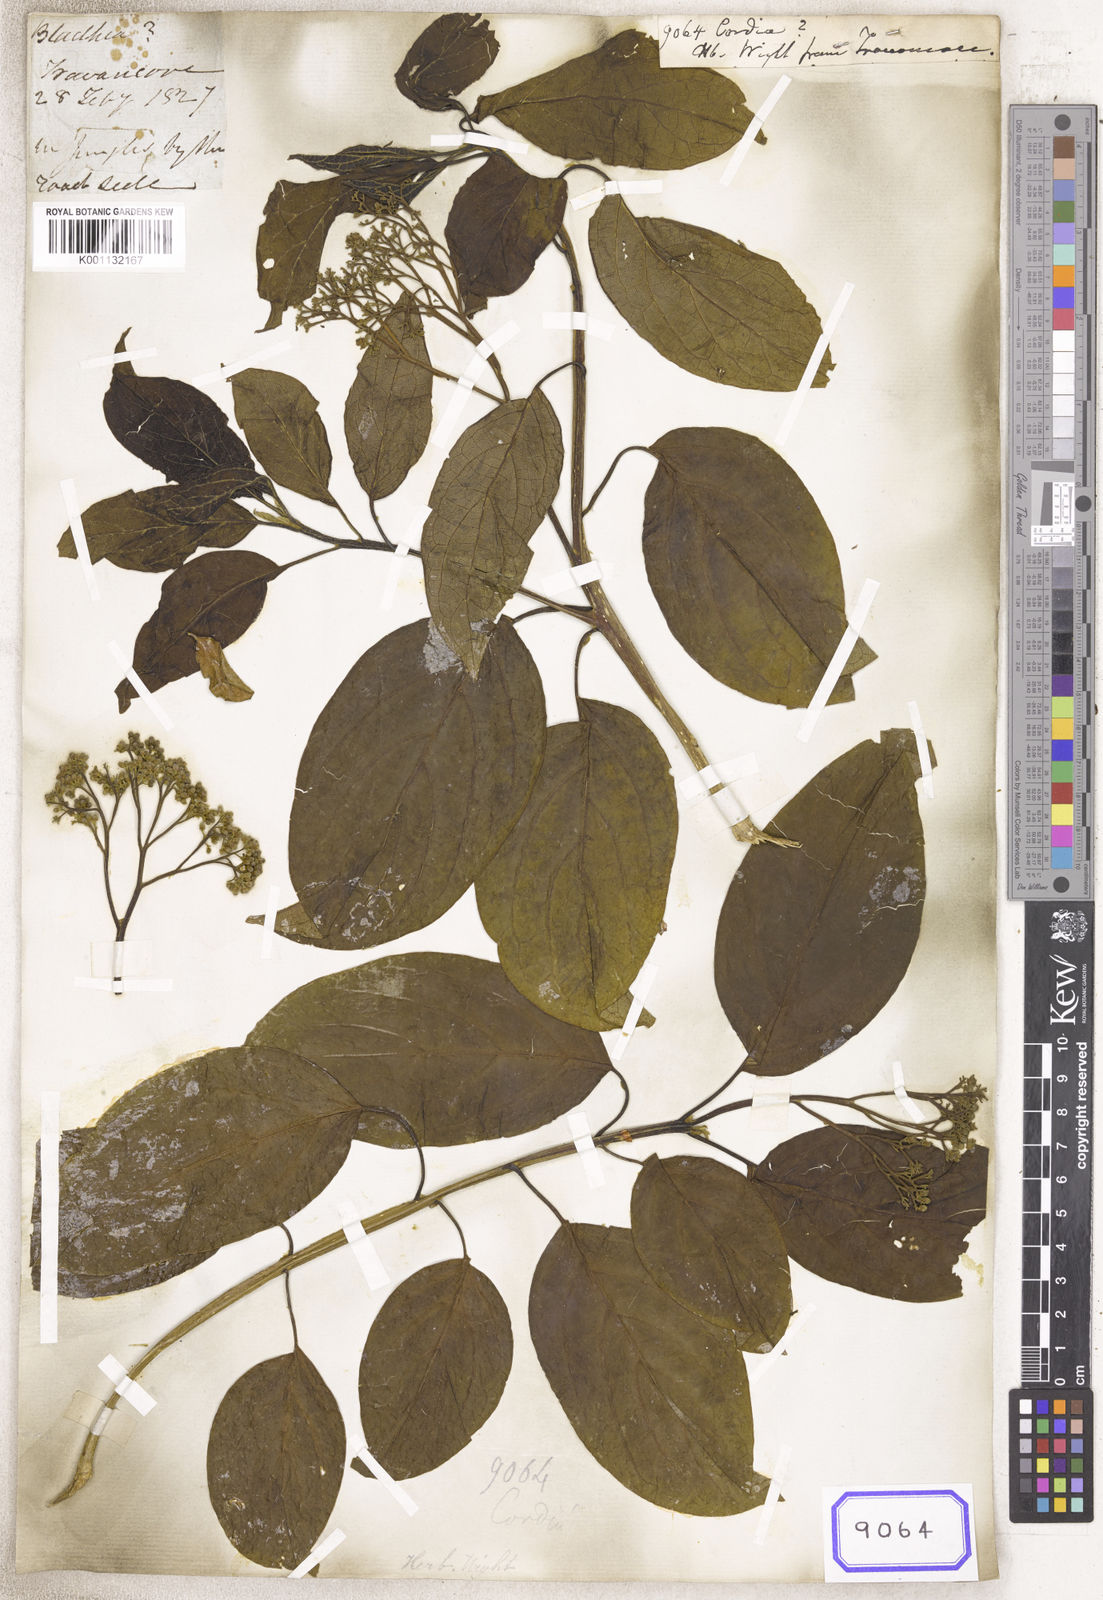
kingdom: Plantae
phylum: Tracheophyta
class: Magnoliopsida
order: Boraginales
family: Cordiaceae
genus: Cordia
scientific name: Cordia
